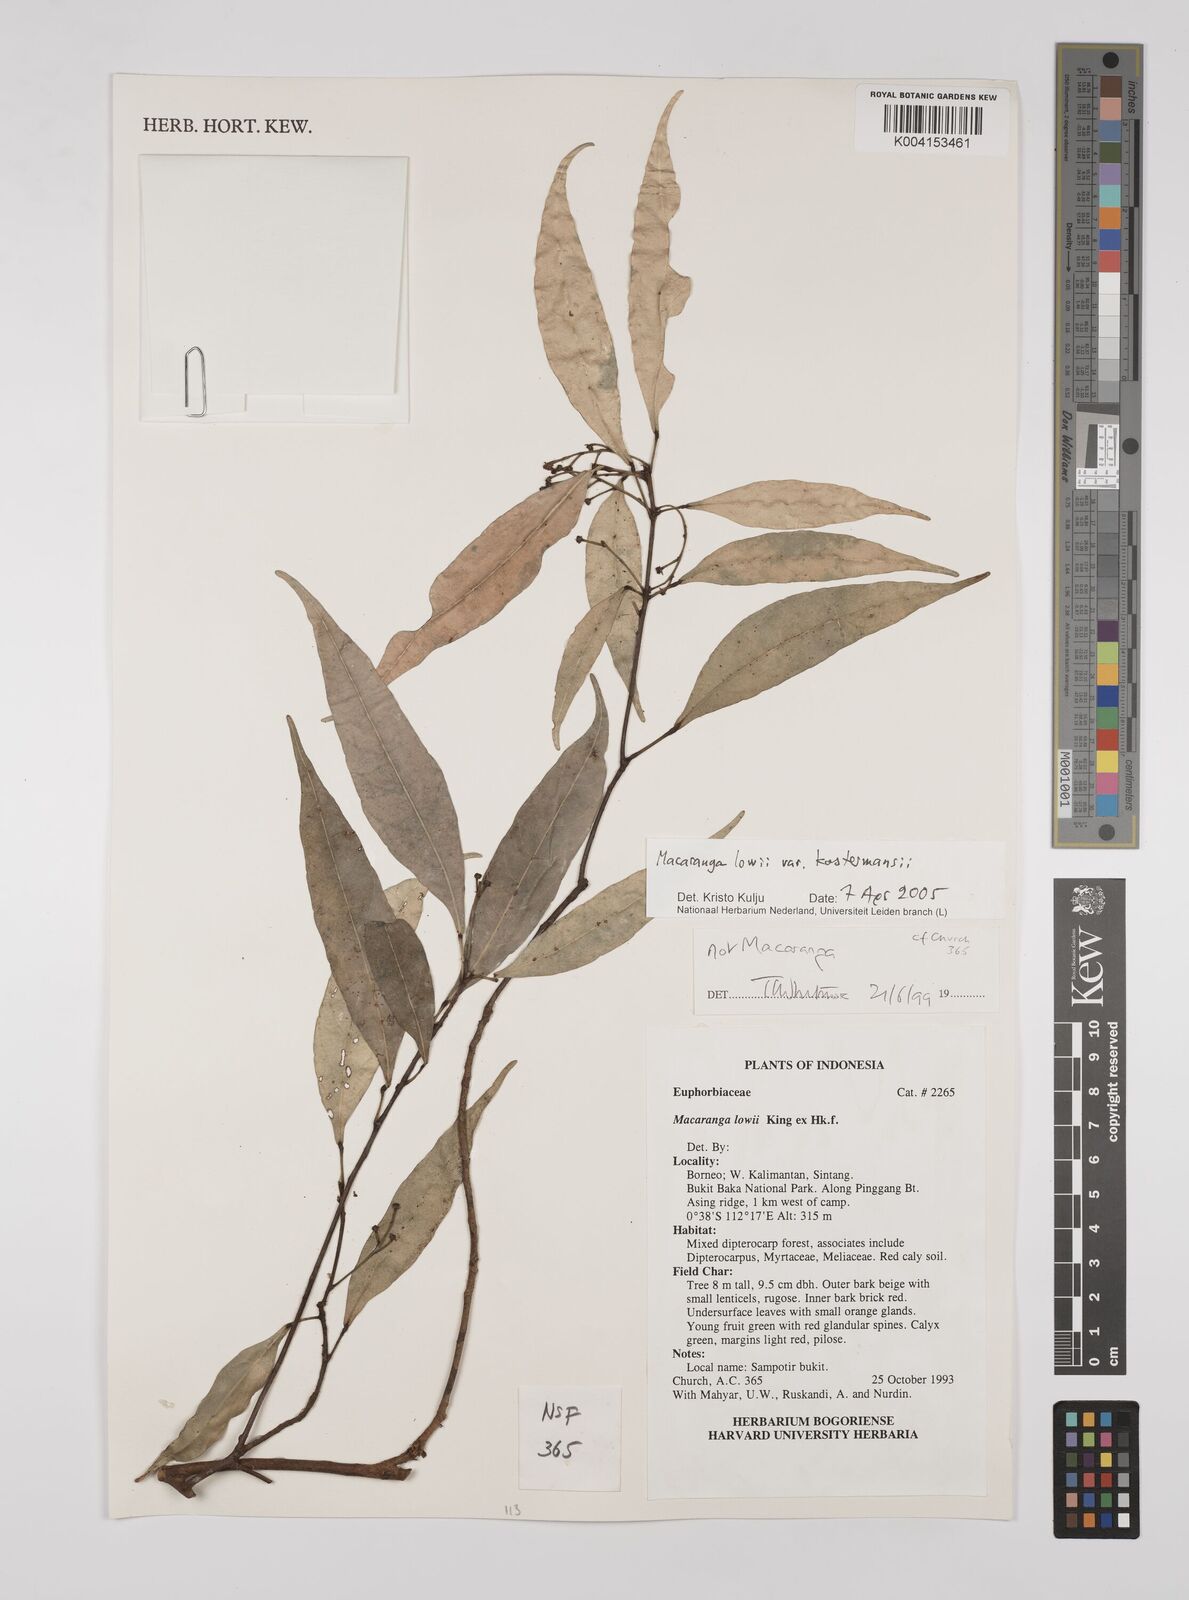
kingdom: Plantae
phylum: Tracheophyta
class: Magnoliopsida
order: Malpighiales
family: Euphorbiaceae
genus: Macaranga
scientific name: Macaranga lowii
